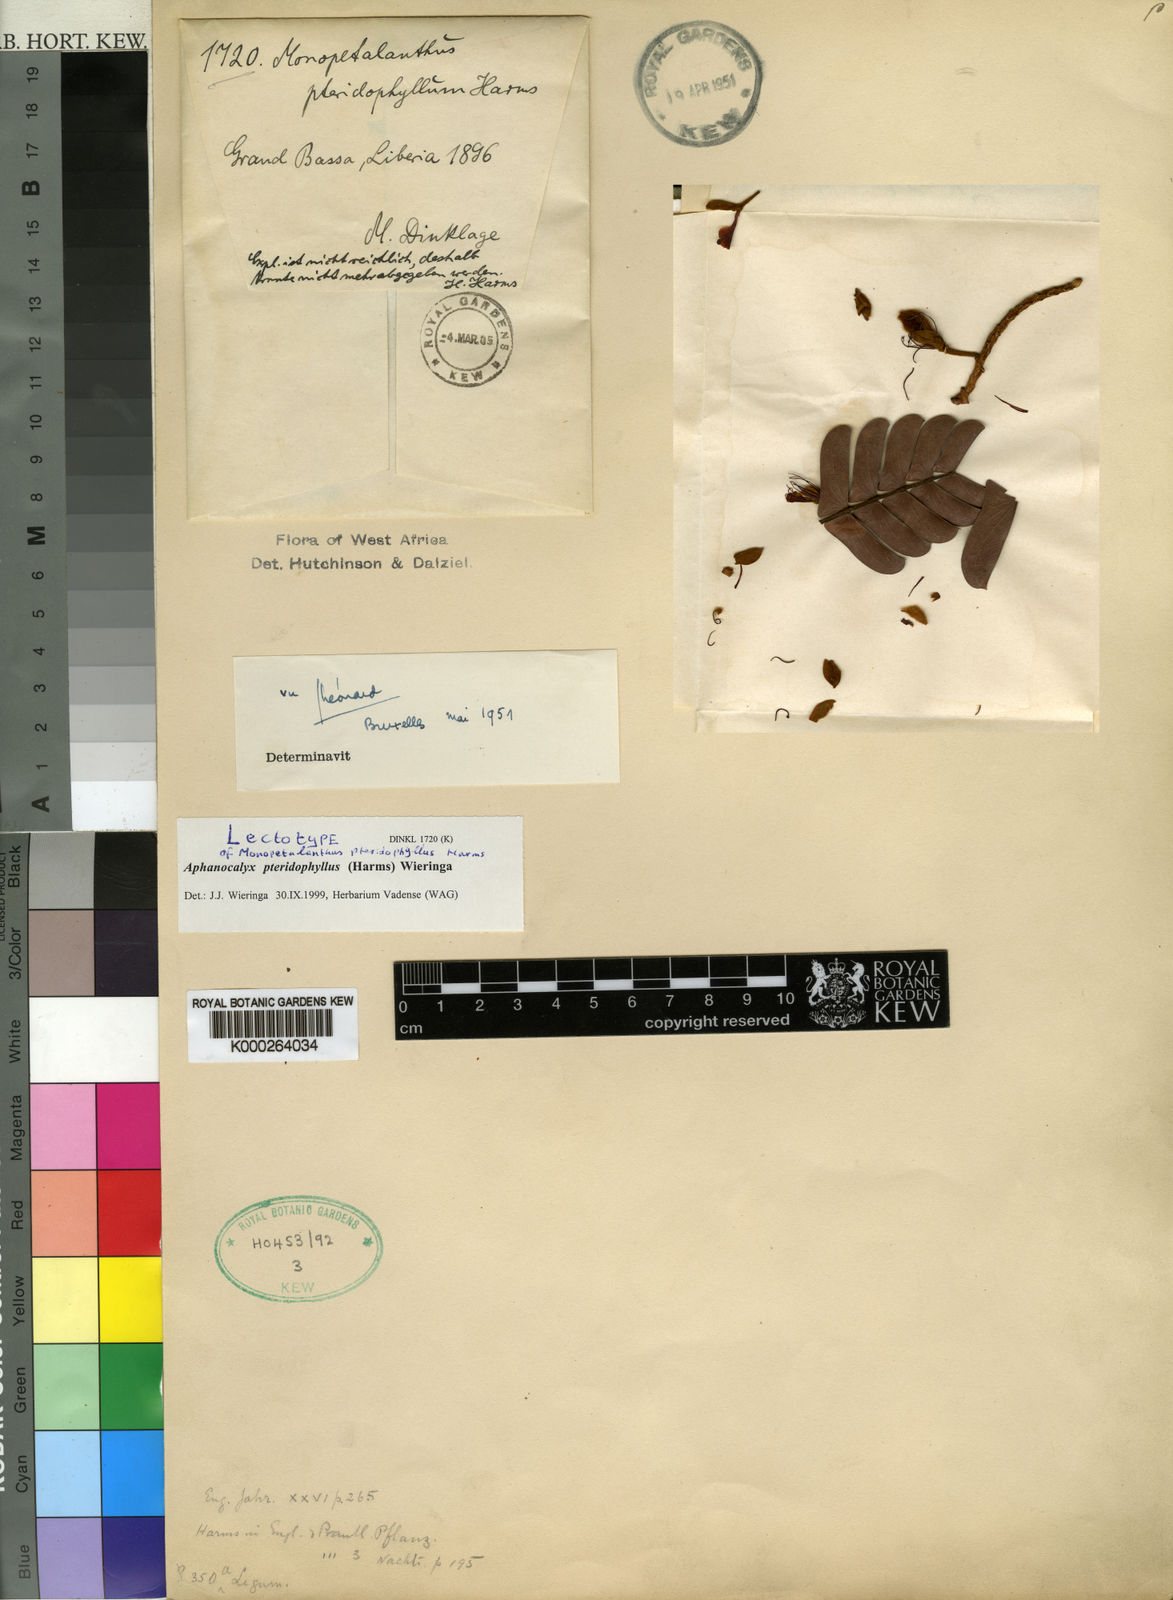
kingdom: Plantae
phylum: Tracheophyta
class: Magnoliopsida
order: Fabales
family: Fabaceae
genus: Aphanocalyx
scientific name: Aphanocalyx
